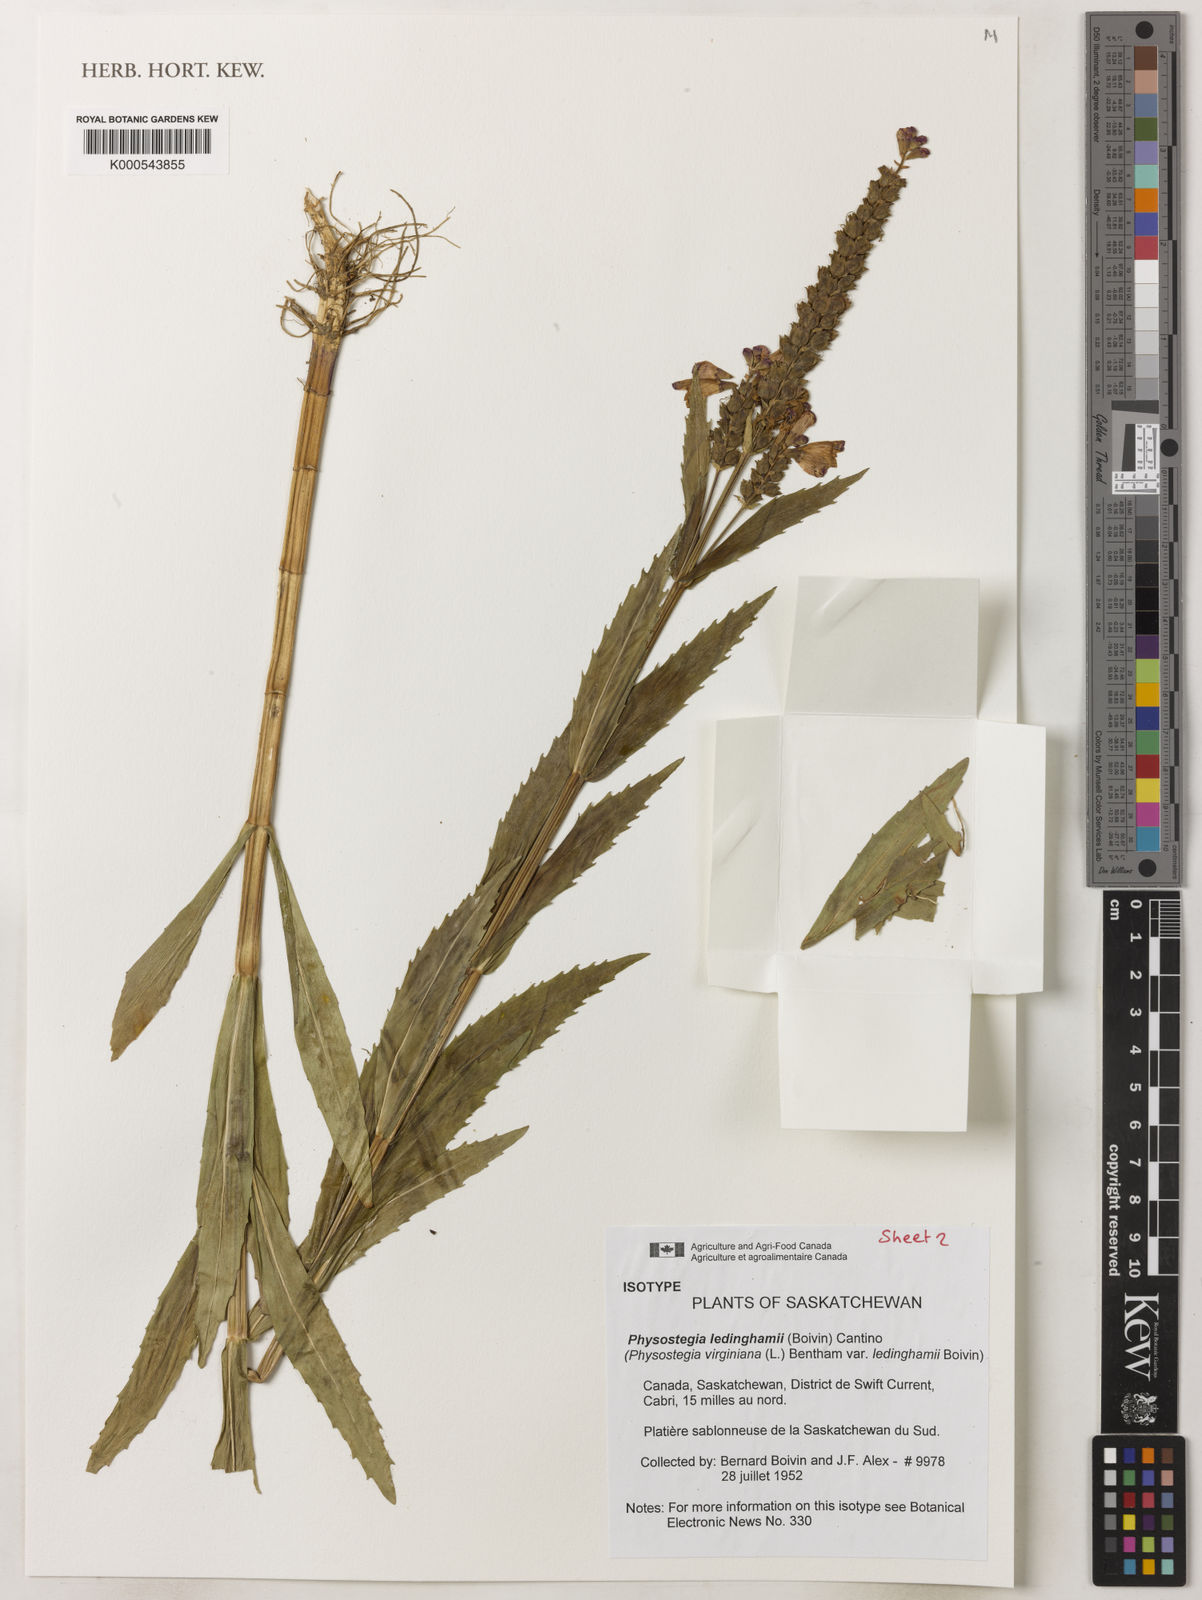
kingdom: Plantae
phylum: Tracheophyta
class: Magnoliopsida
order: Lamiales
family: Lamiaceae
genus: Physostegia
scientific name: Physostegia ledinghamii
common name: Ledingham's false dragonhead
